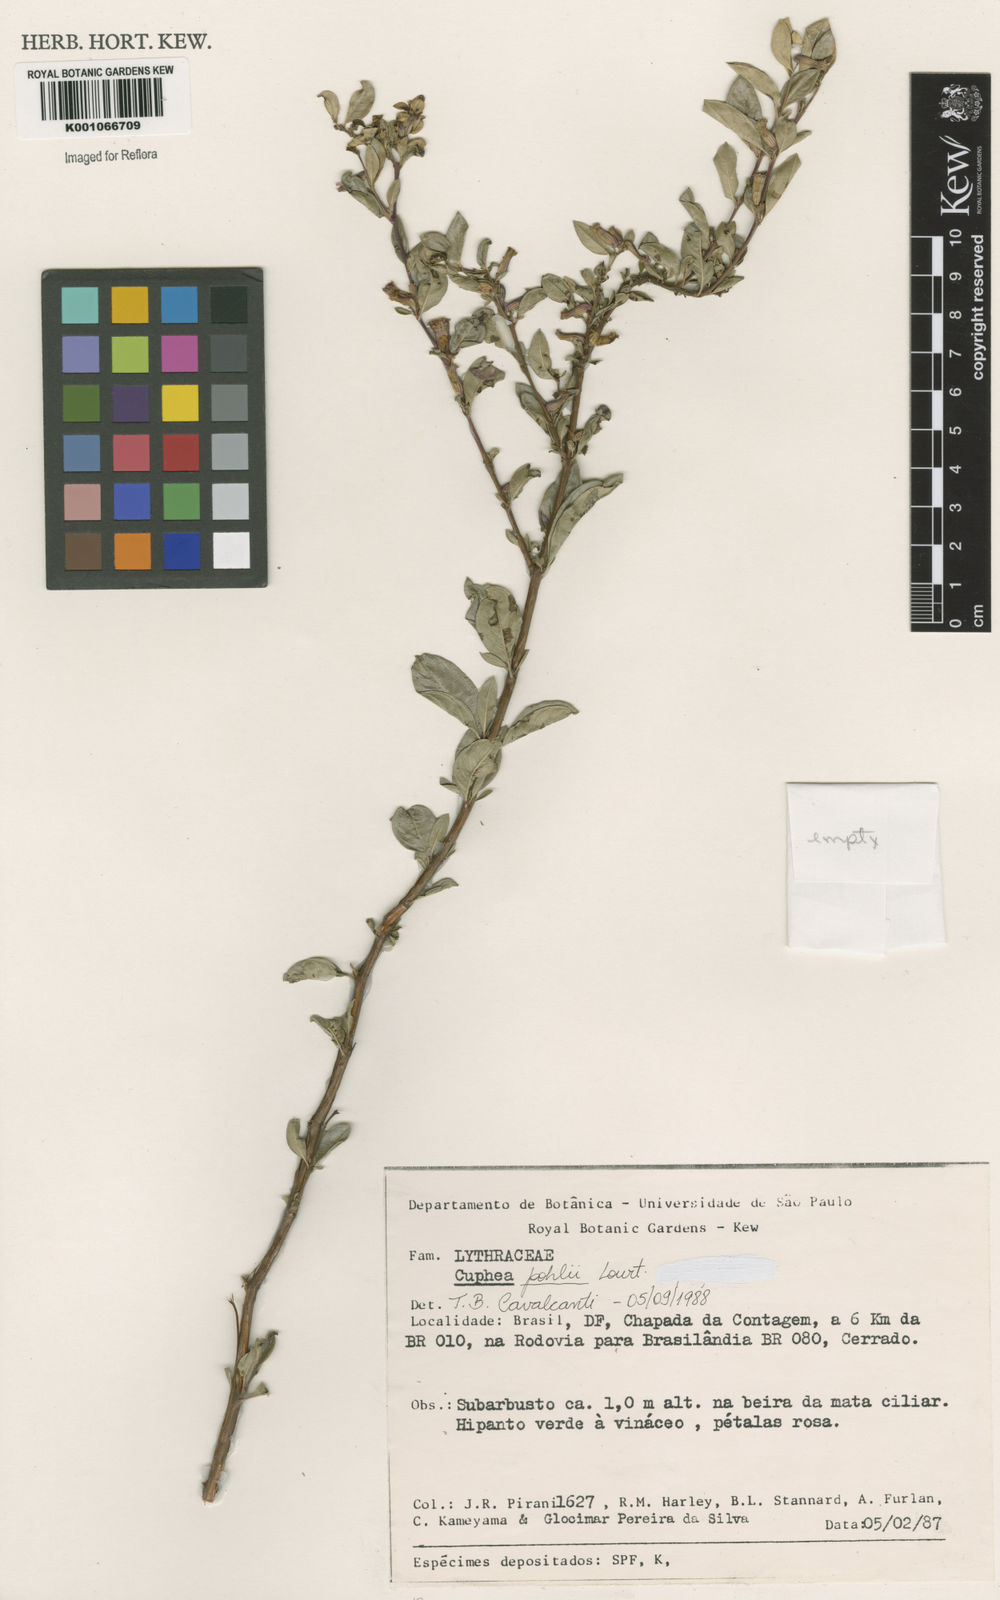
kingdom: Plantae
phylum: Tracheophyta
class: Magnoliopsida
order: Myrtales
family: Lythraceae
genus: Cuphea
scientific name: Cuphea pohlii
